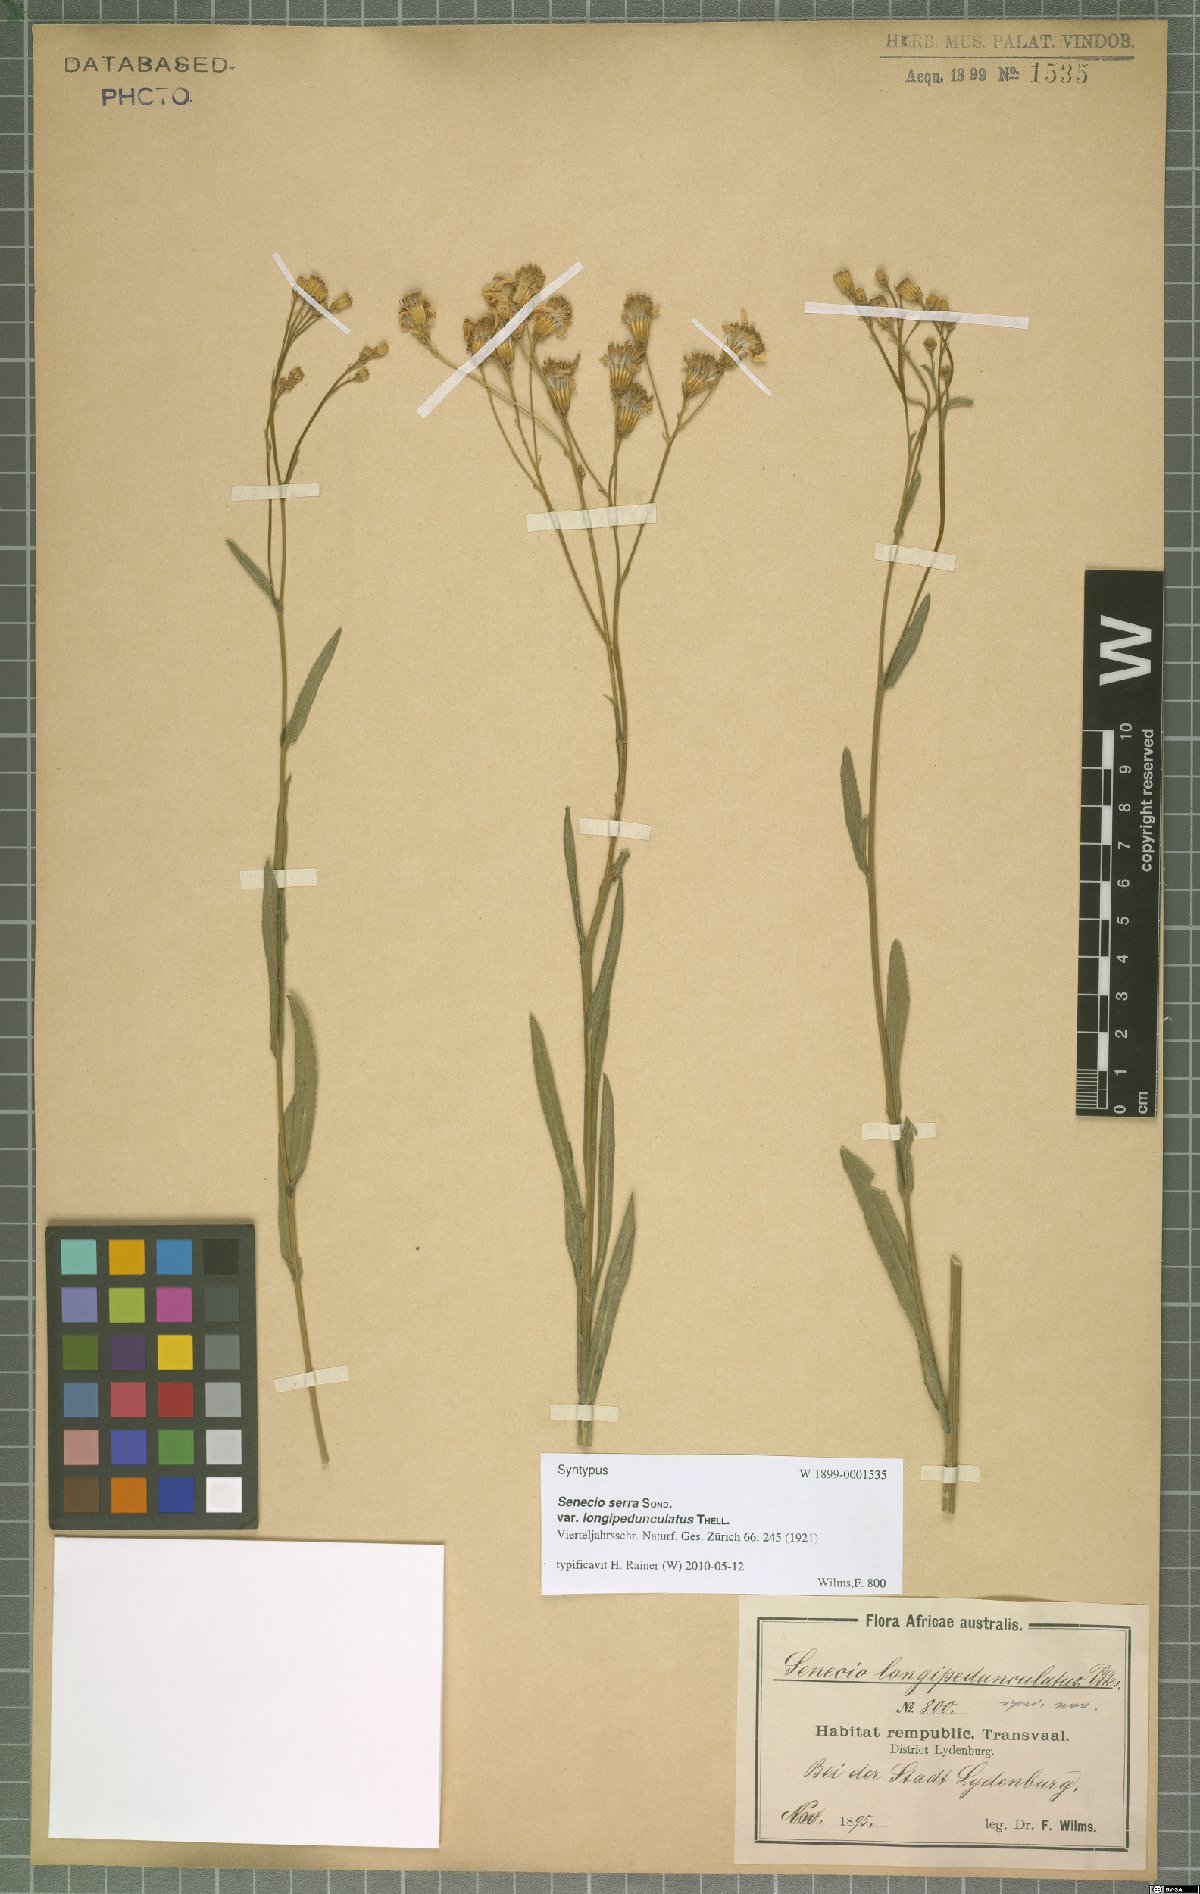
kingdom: Plantae
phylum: Tracheophyta
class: Magnoliopsida
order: Asterales
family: Asteraceae
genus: Senecio
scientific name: Senecio serra
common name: Tall ragwort
